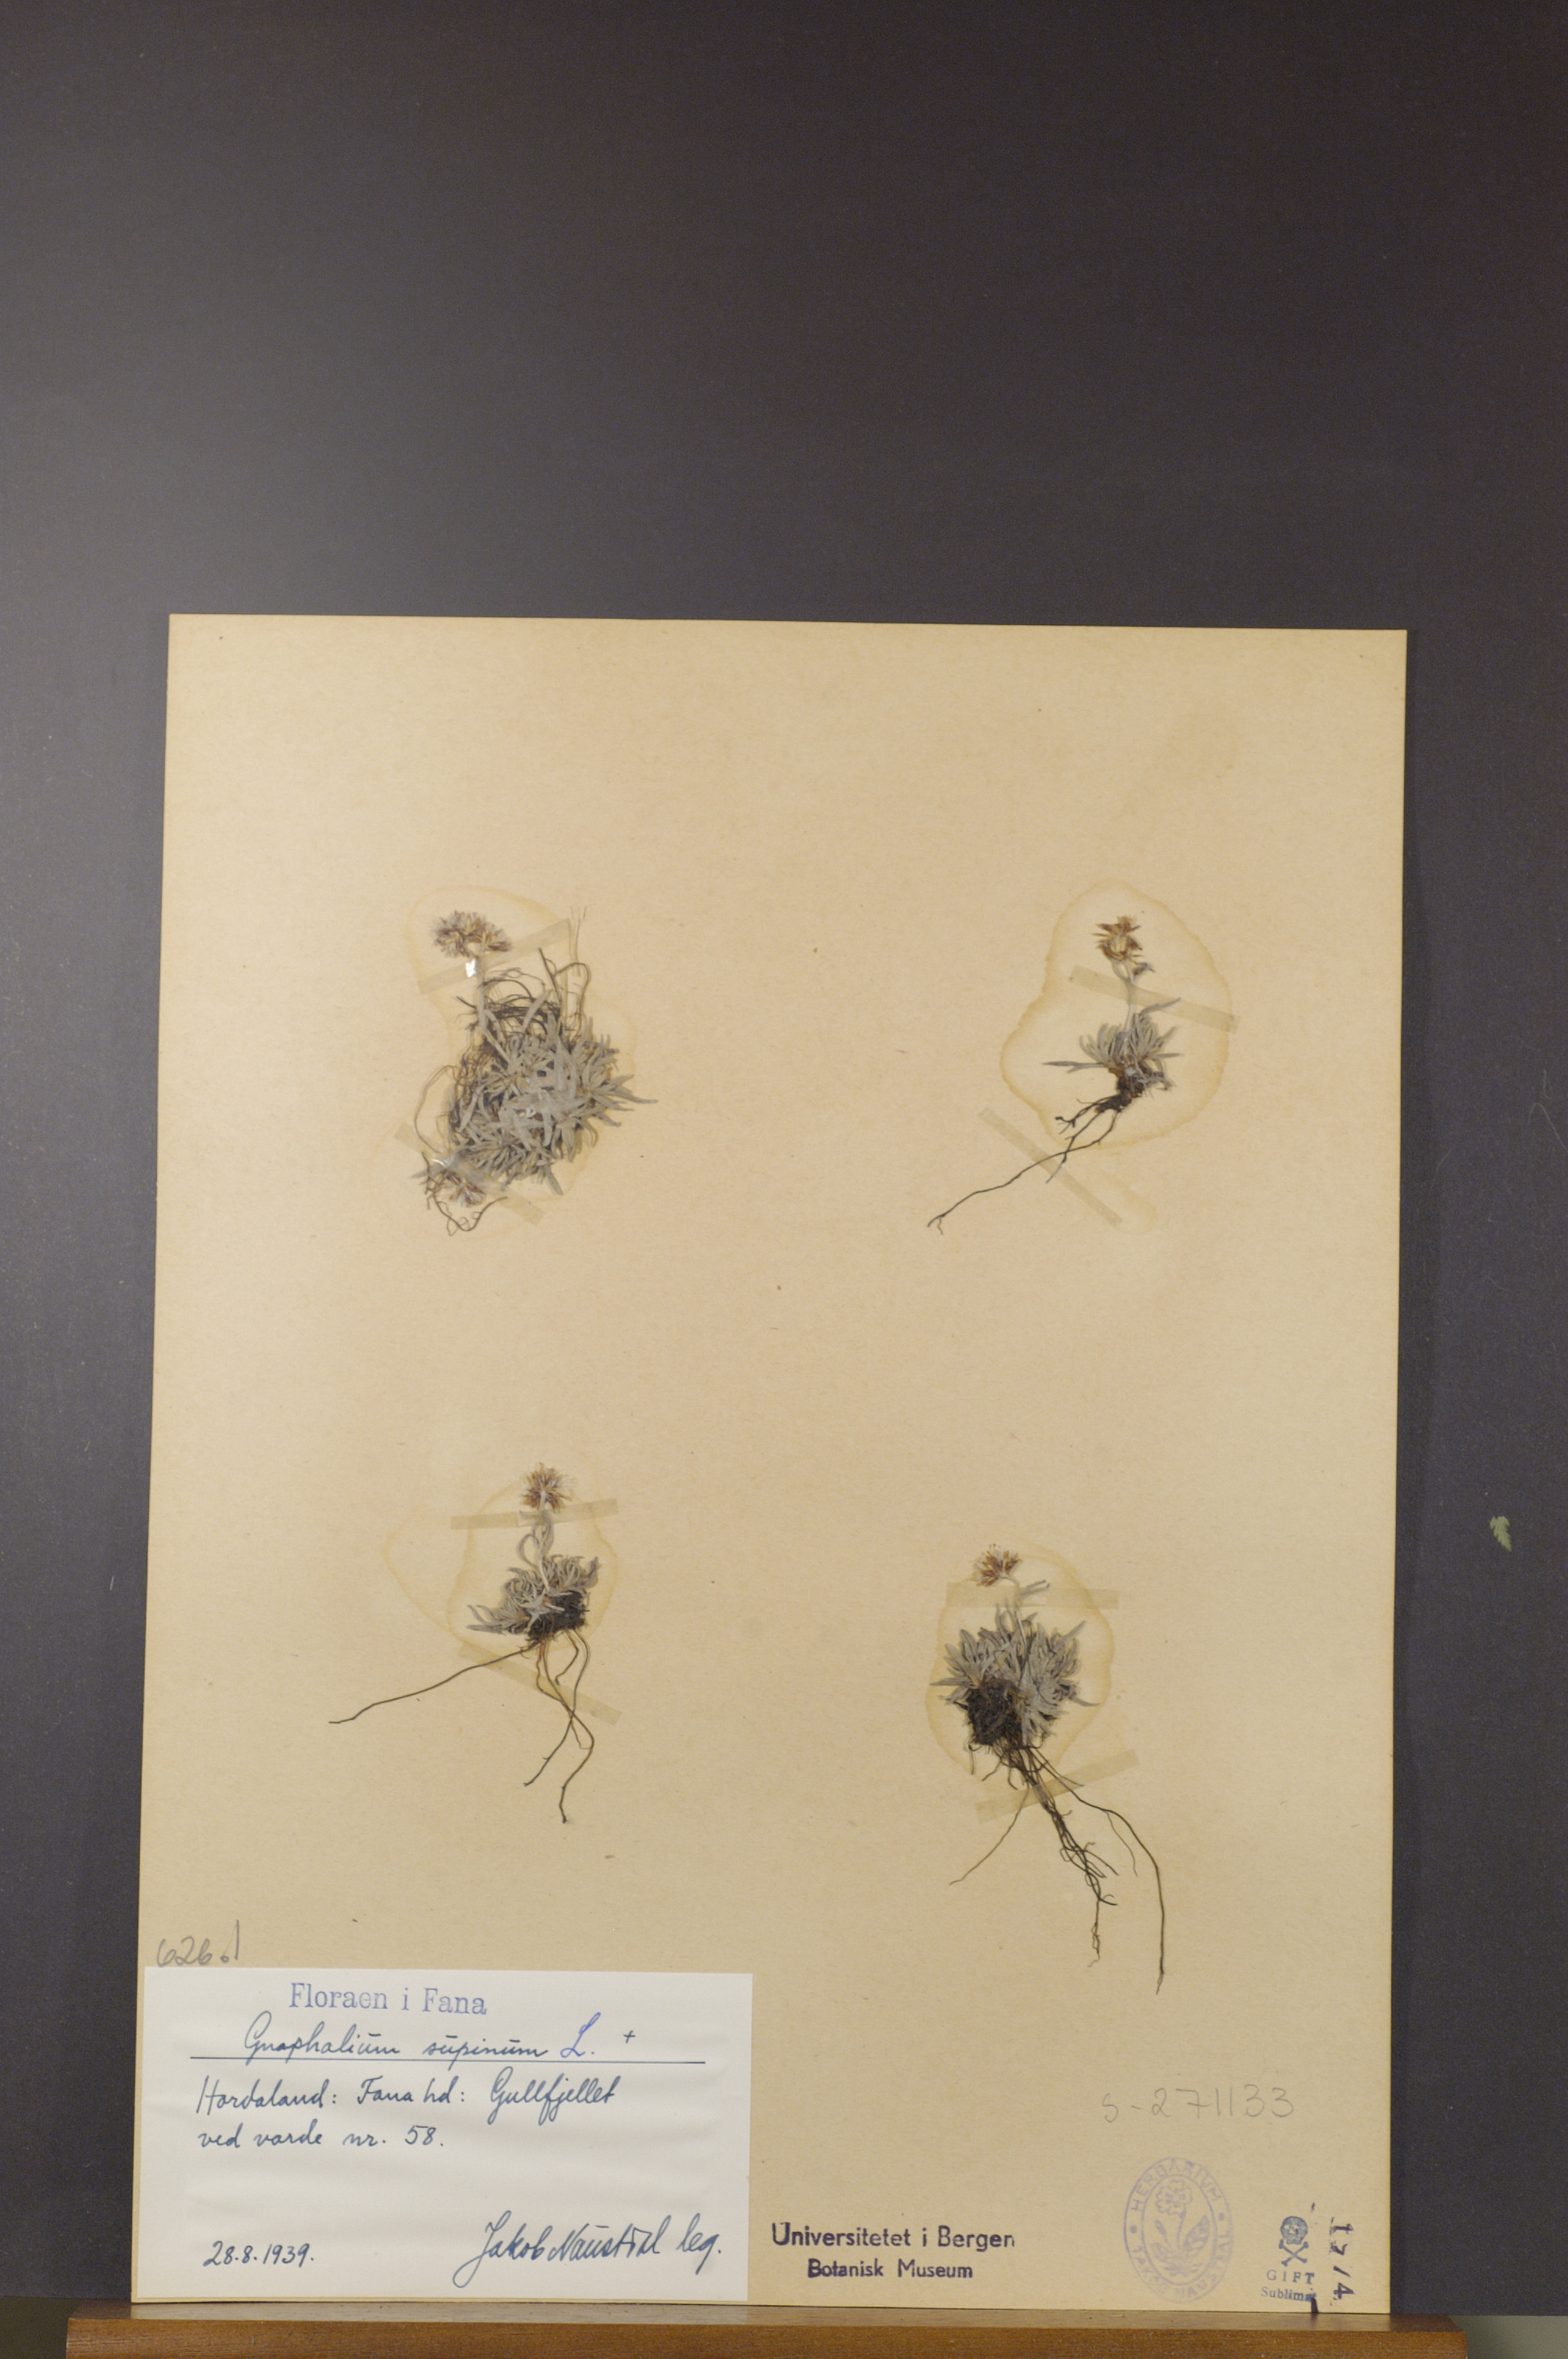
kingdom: Plantae
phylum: Tracheophyta
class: Magnoliopsida
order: Asterales
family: Asteraceae
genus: Omalotheca
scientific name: Omalotheca supina
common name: Alpine arctic-cudweed
